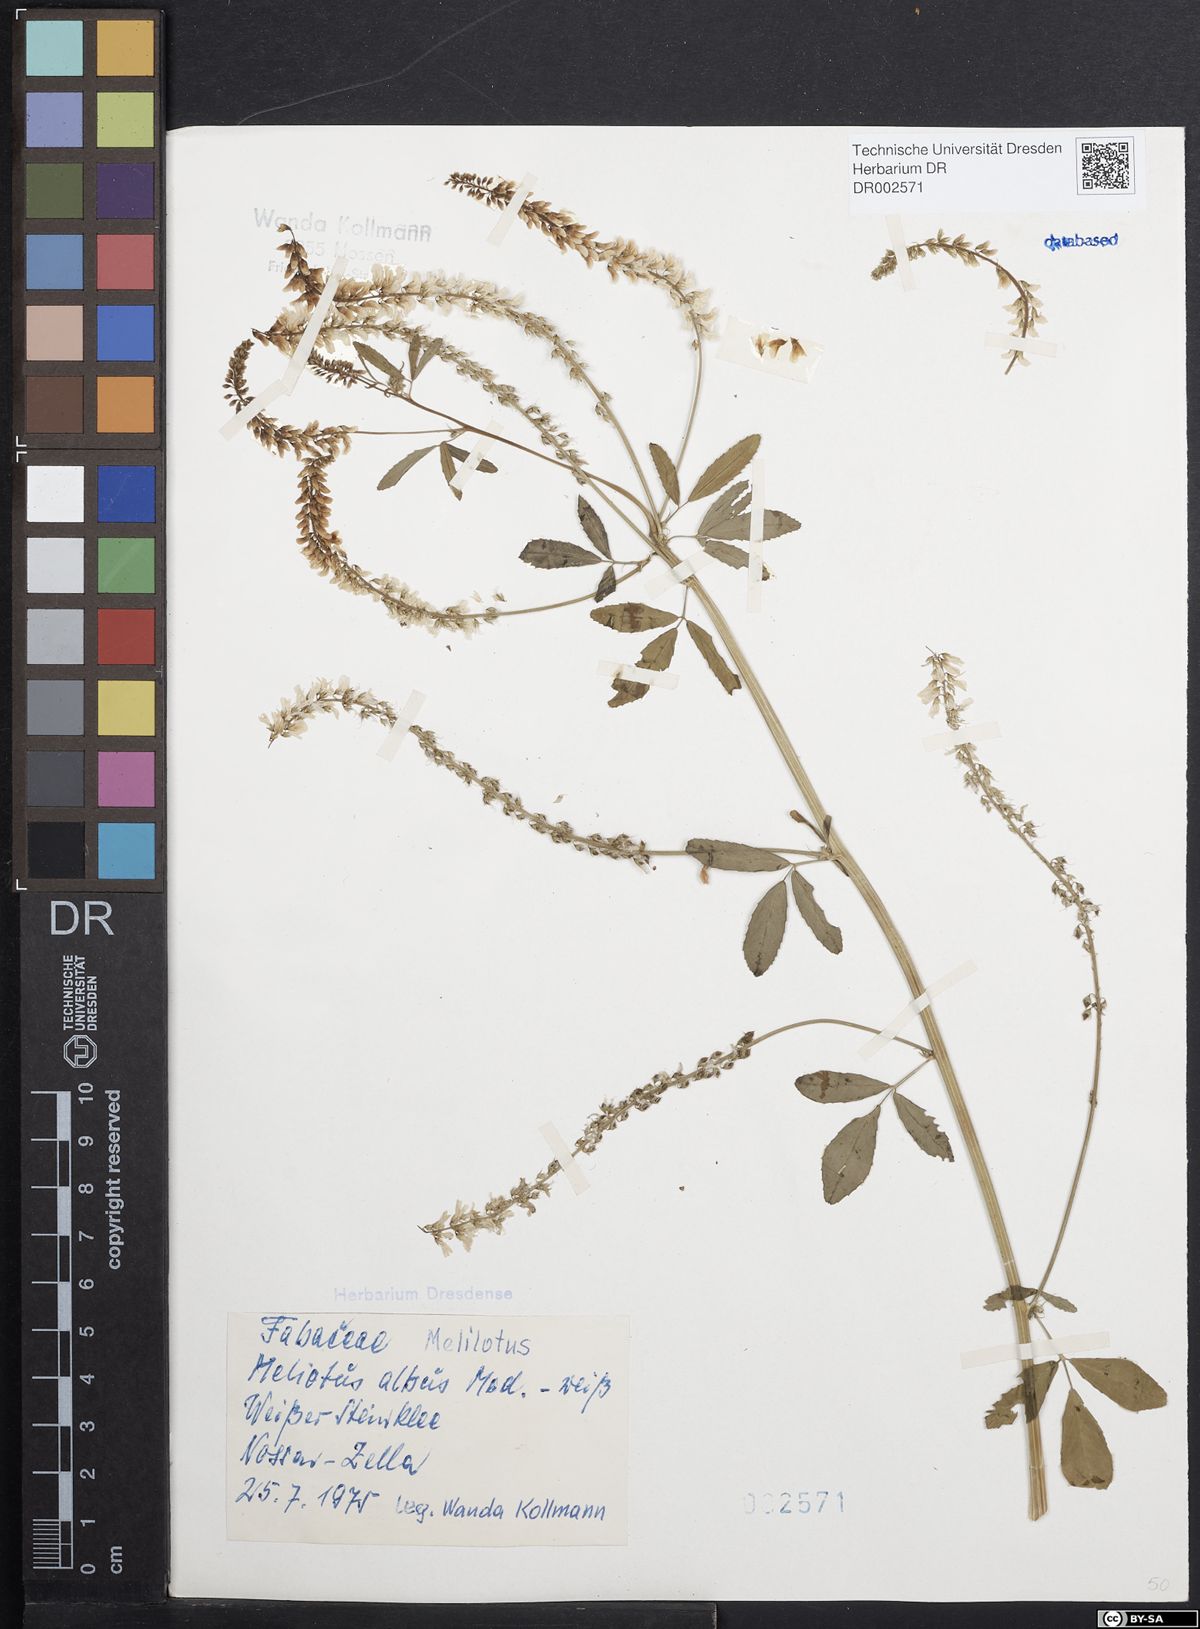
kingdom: Plantae
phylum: Tracheophyta
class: Magnoliopsida
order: Fabales
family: Fabaceae
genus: Melilotus
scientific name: Melilotus albus
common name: White melilot
